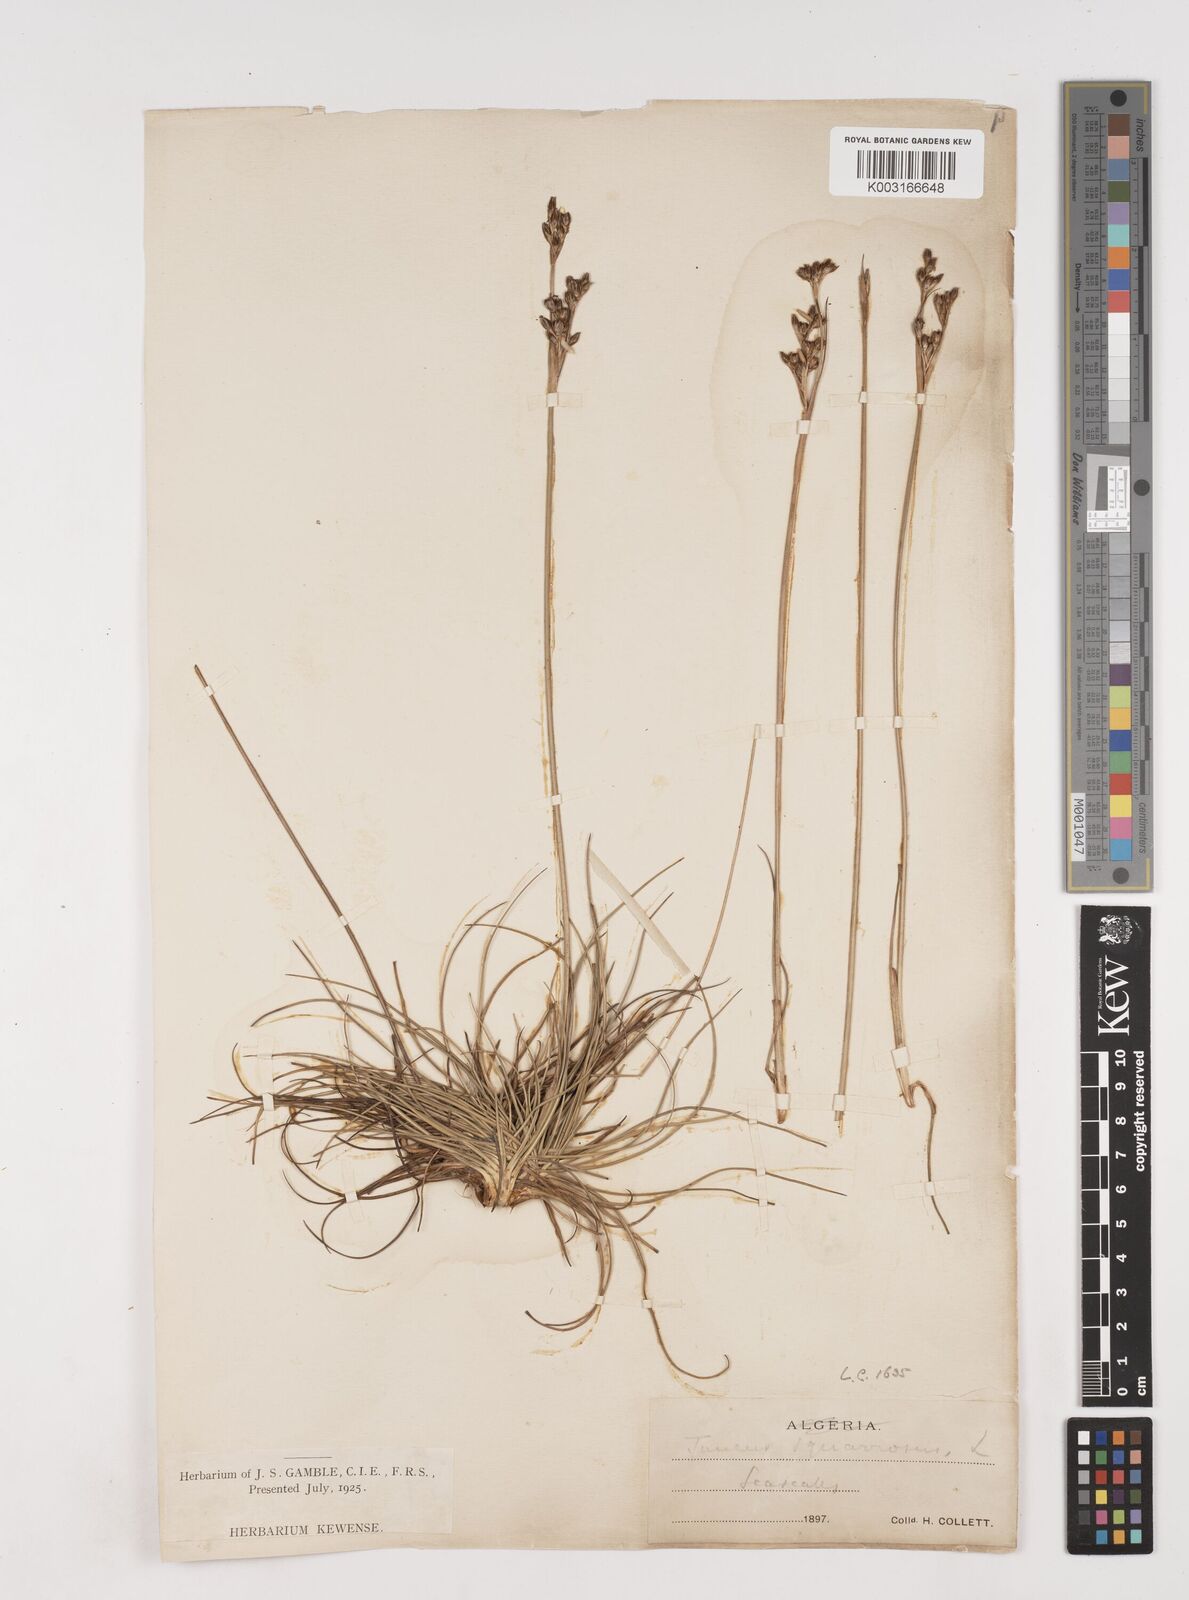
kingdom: Plantae
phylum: Tracheophyta
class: Liliopsida
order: Poales
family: Juncaceae
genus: Juncus
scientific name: Juncus squarrosus
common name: Heath rush
